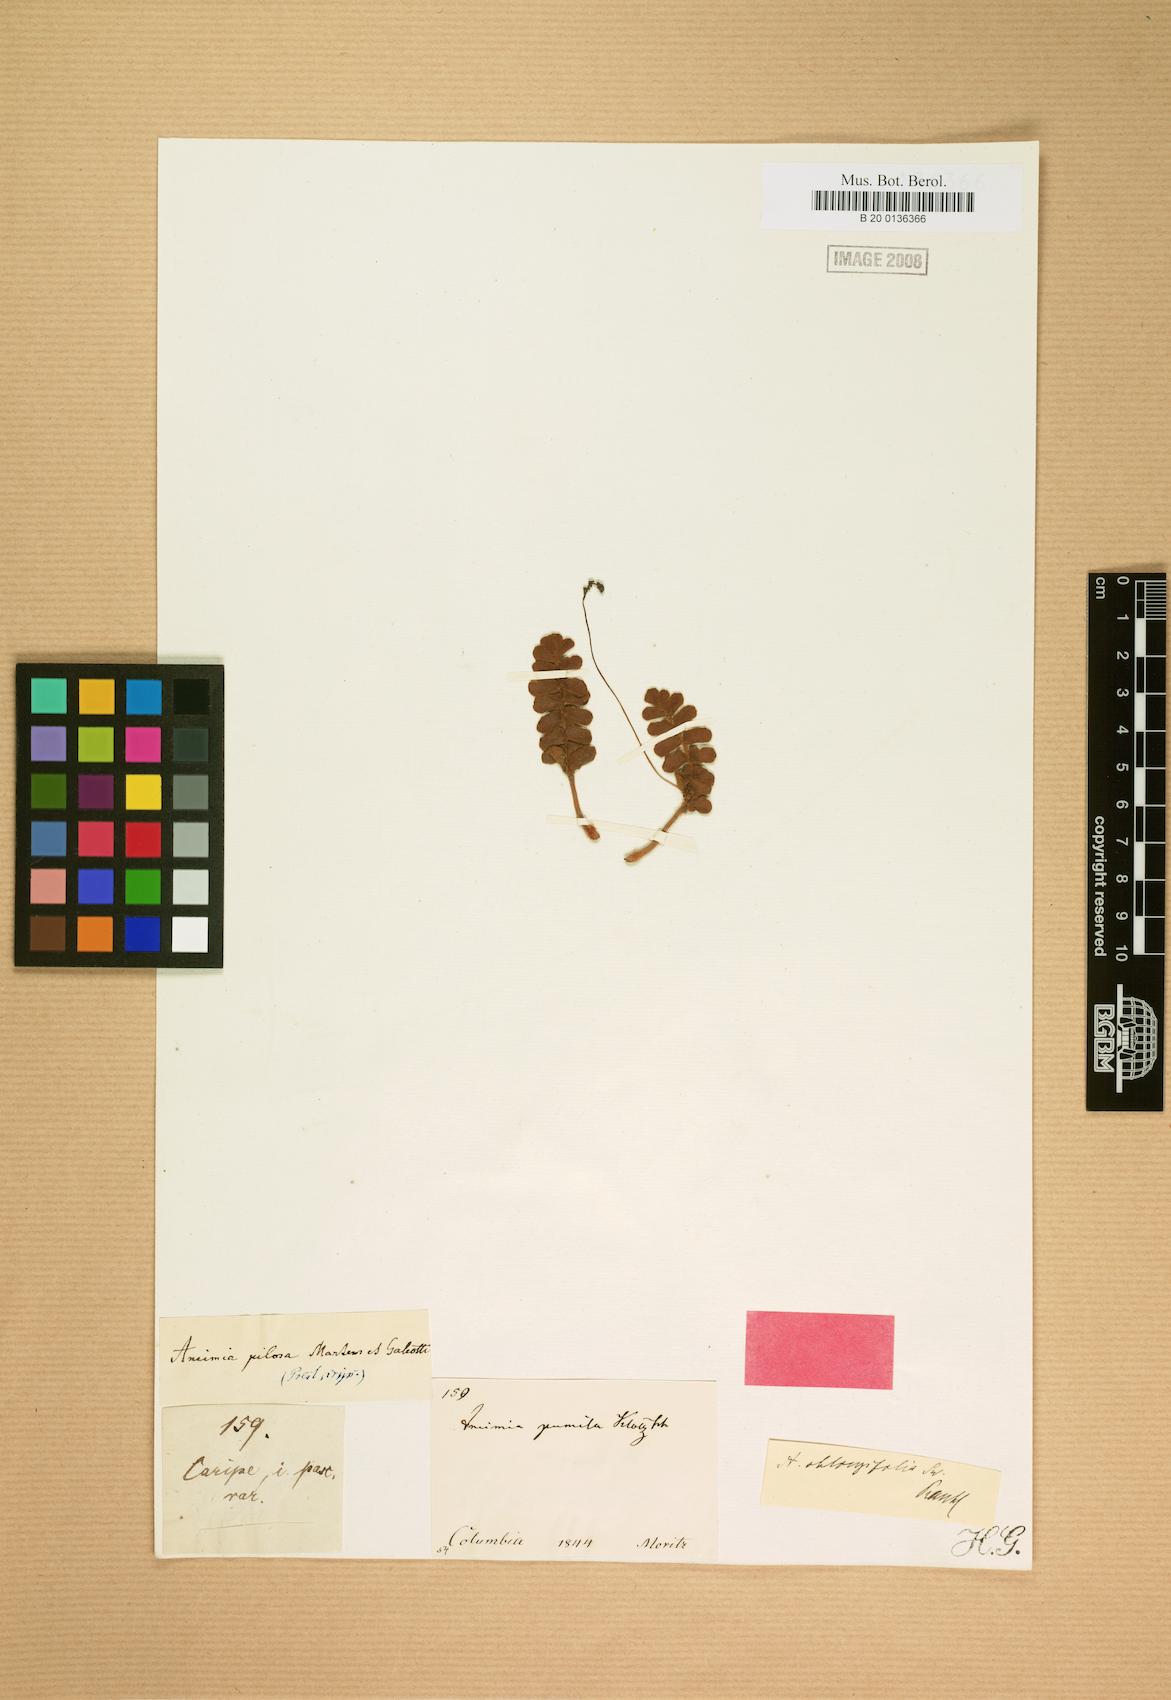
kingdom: Plantae
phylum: Tracheophyta
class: Polypodiopsida
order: Schizaeales
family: Anemiaceae
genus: Anemia
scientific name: Anemia oblongifolia
